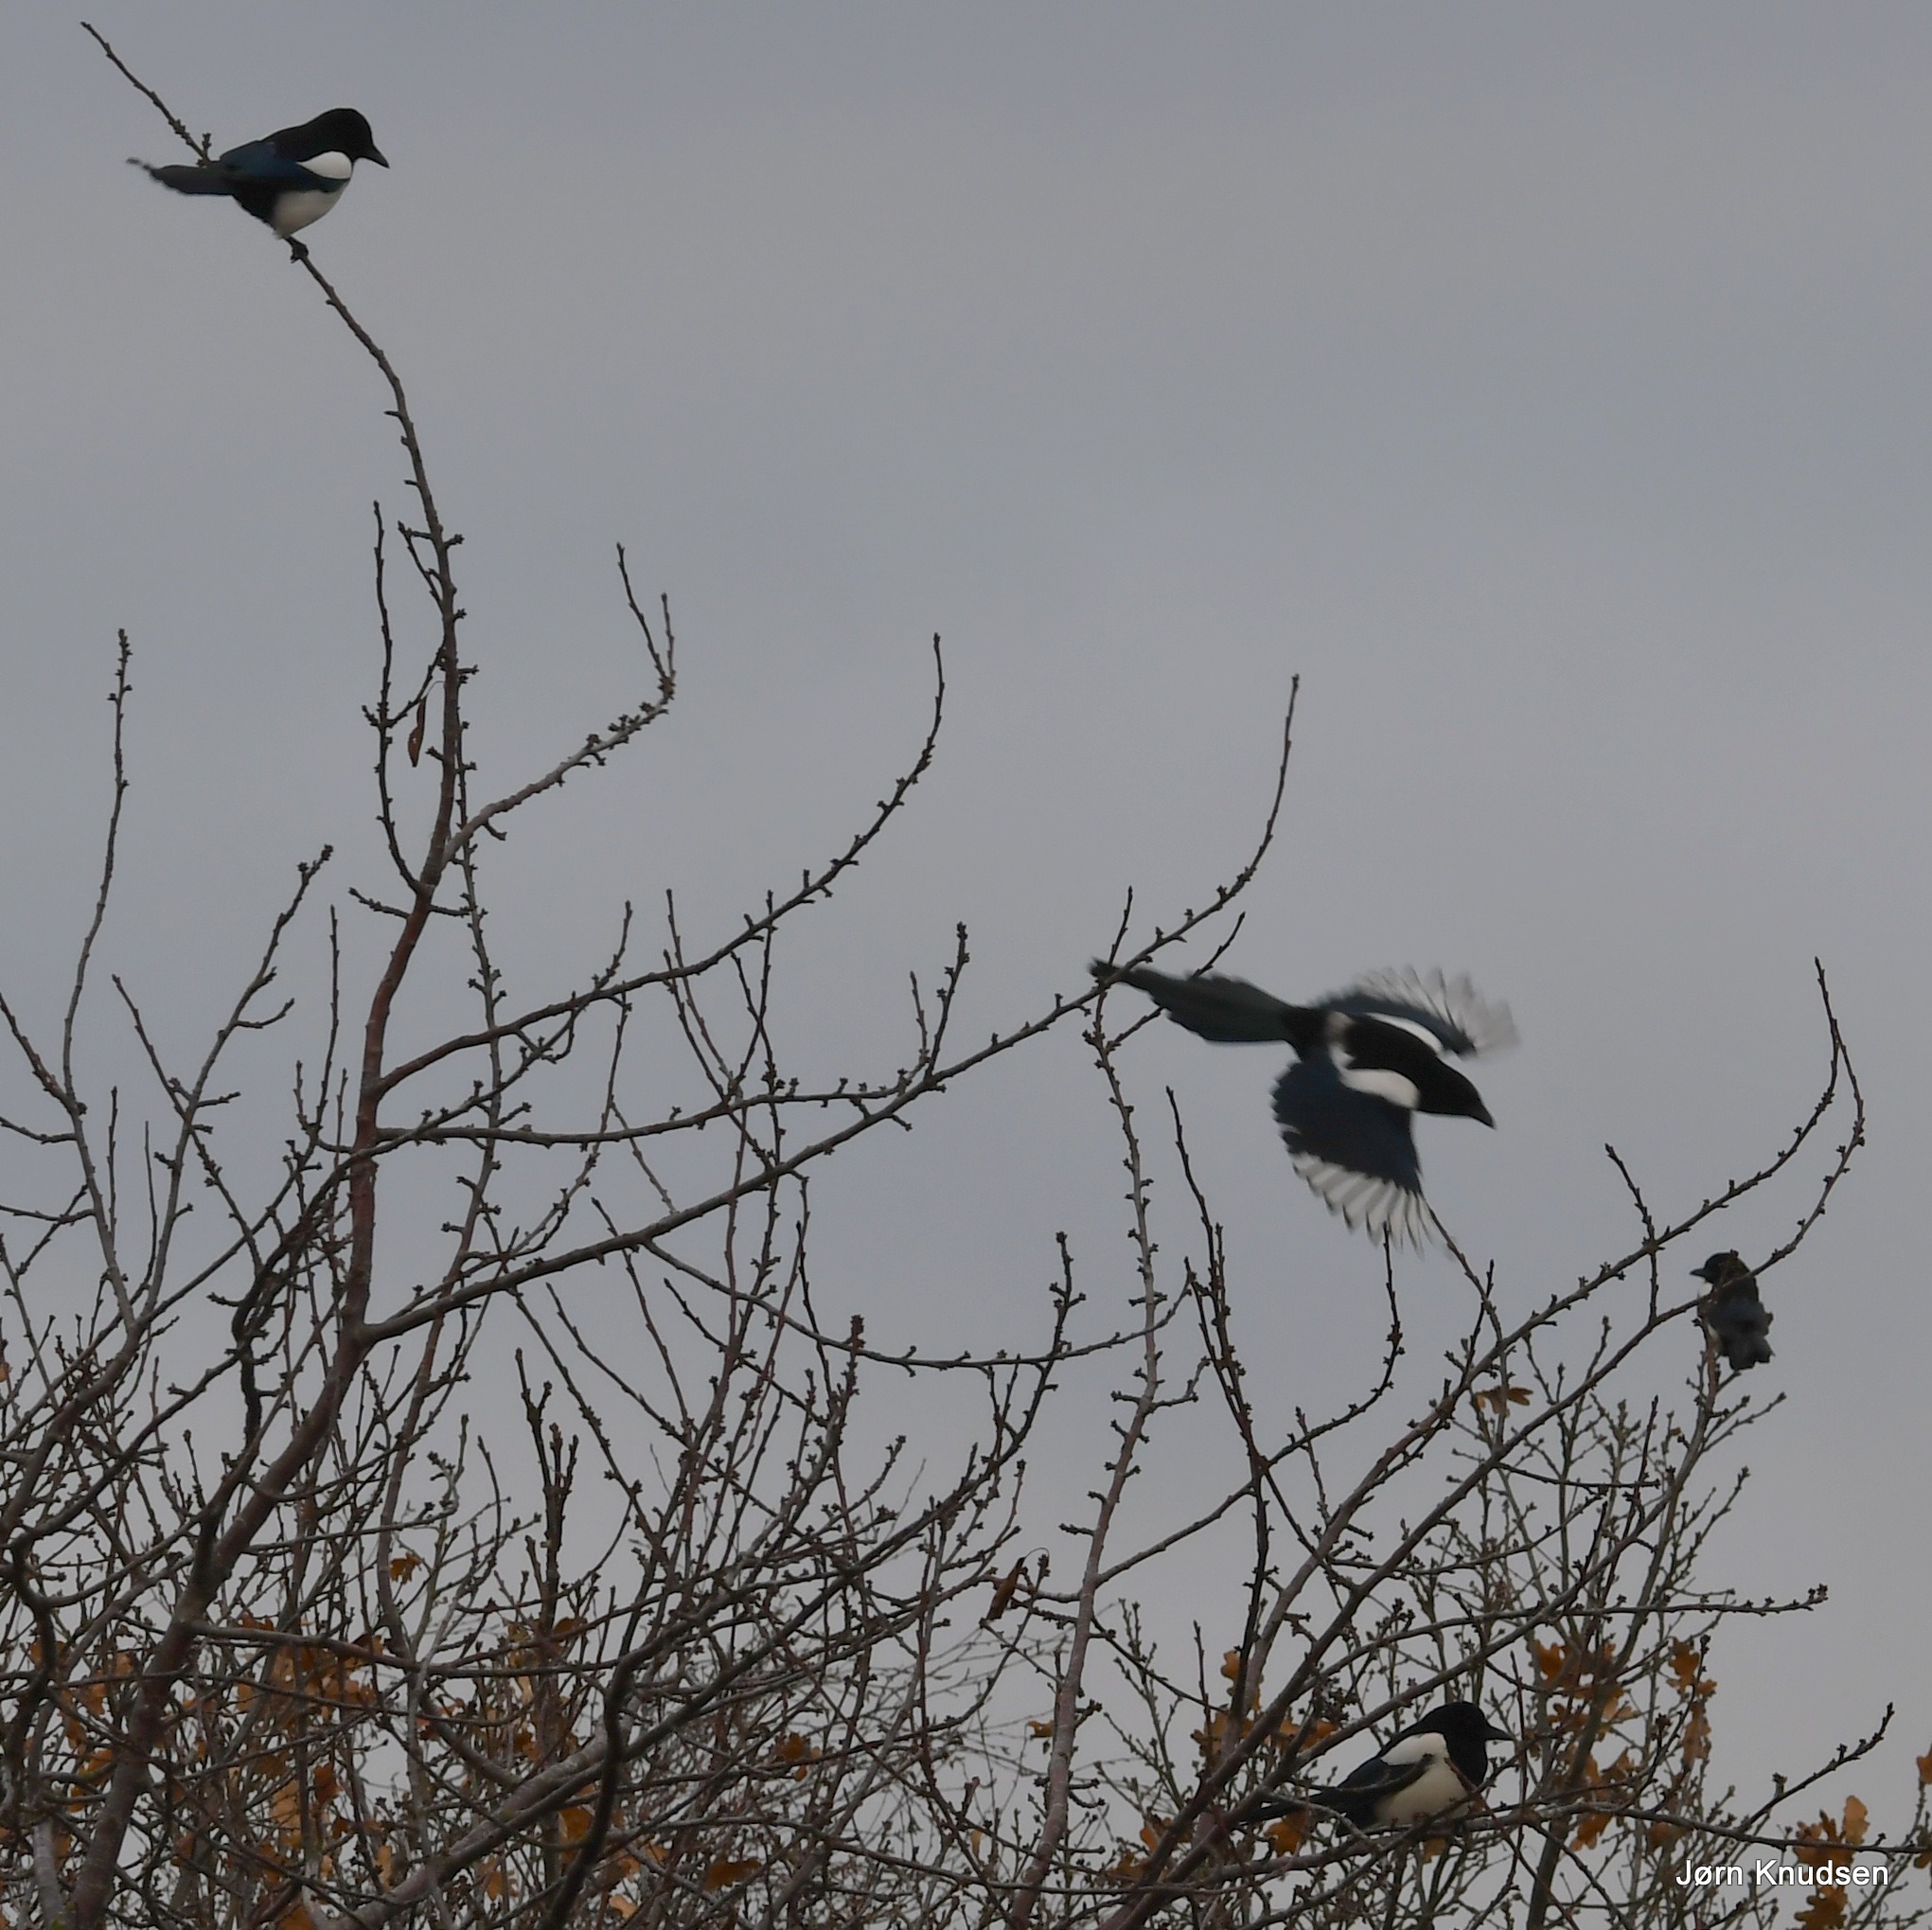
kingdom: Animalia
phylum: Chordata
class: Aves
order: Passeriformes
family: Corvidae
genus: Pica
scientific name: Pica pica
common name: Husskade
